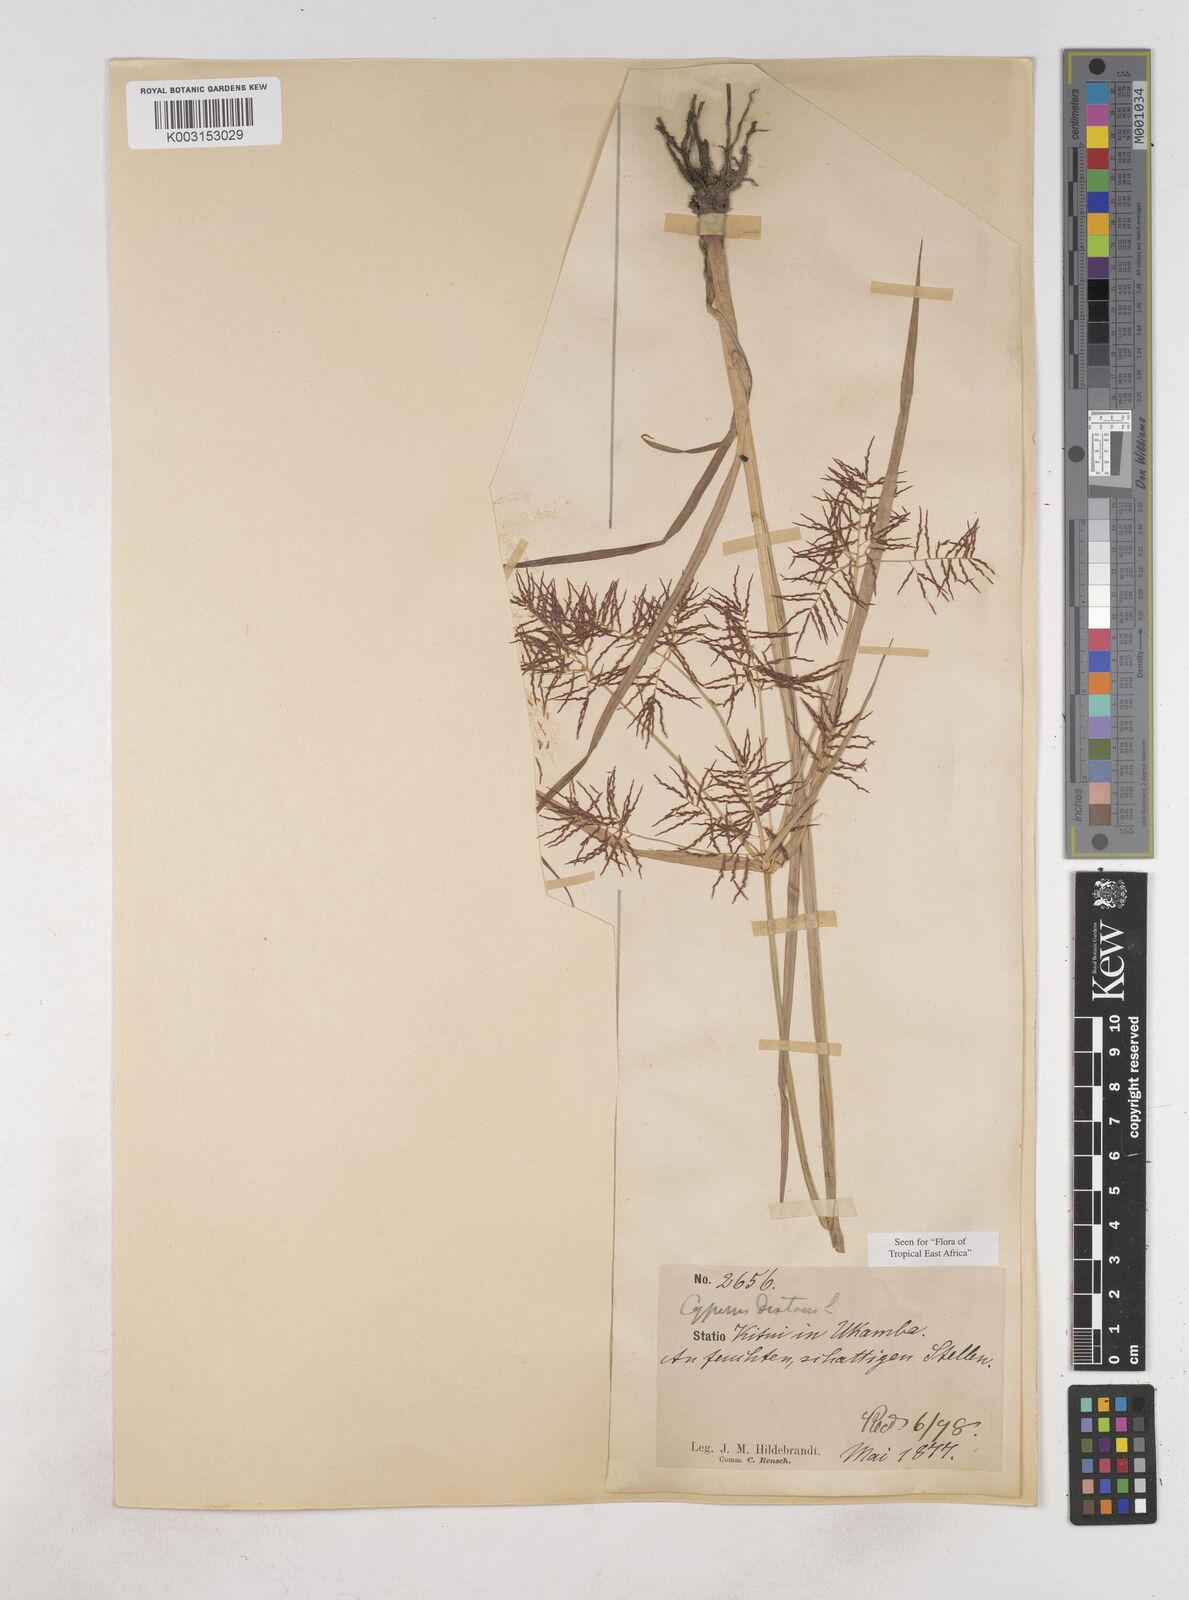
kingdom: Plantae
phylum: Tracheophyta
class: Liliopsida
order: Poales
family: Cyperaceae
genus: Cyperus
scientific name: Cyperus distans
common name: Slender cyperus
